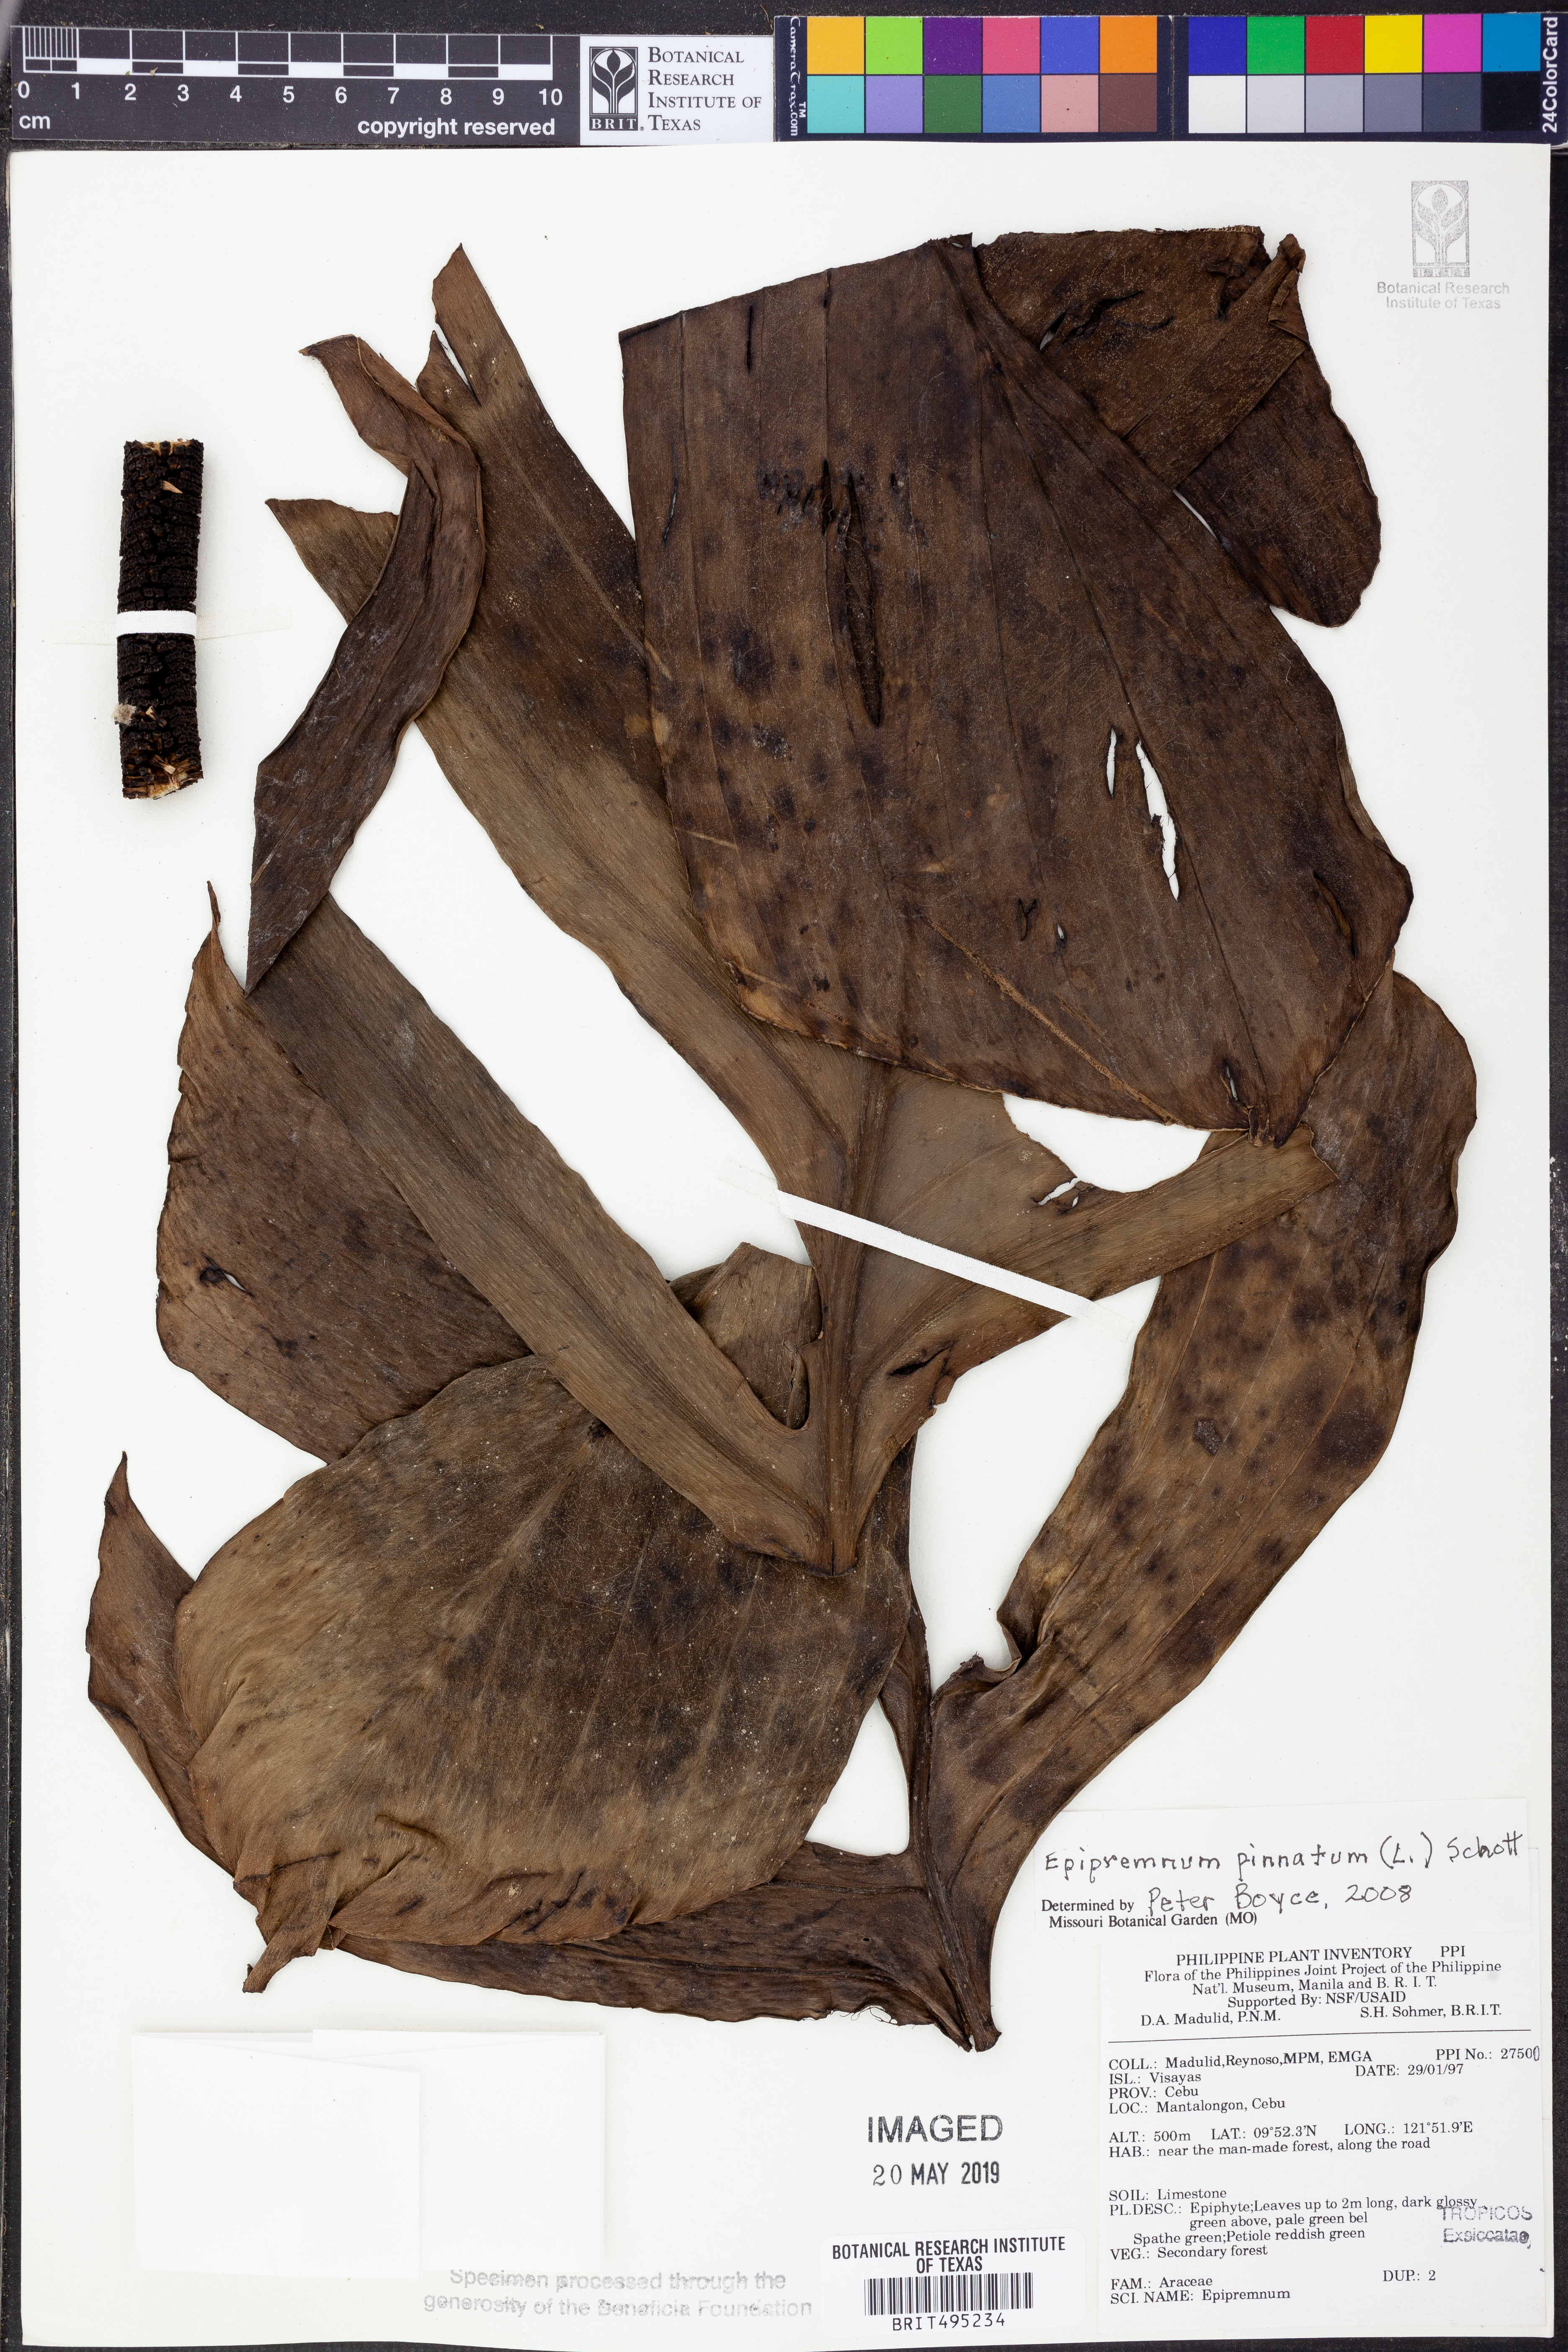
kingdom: Plantae
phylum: Tracheophyta
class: Liliopsida
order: Alismatales
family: Araceae
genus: Epipremnum
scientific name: Epipremnum pinnatum
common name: Centipede tongavine
